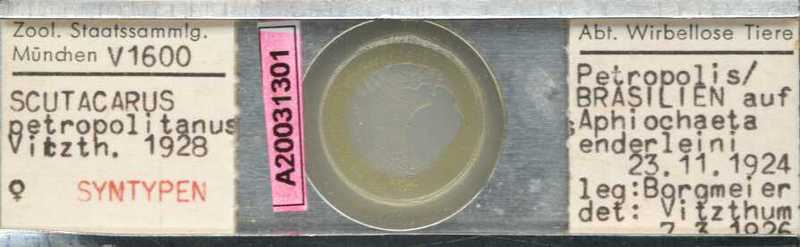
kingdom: Animalia
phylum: Arthropoda
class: Arachnida
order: Trombidiformes
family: Scutacaridae
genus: Scutacarus
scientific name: Scutacarus
